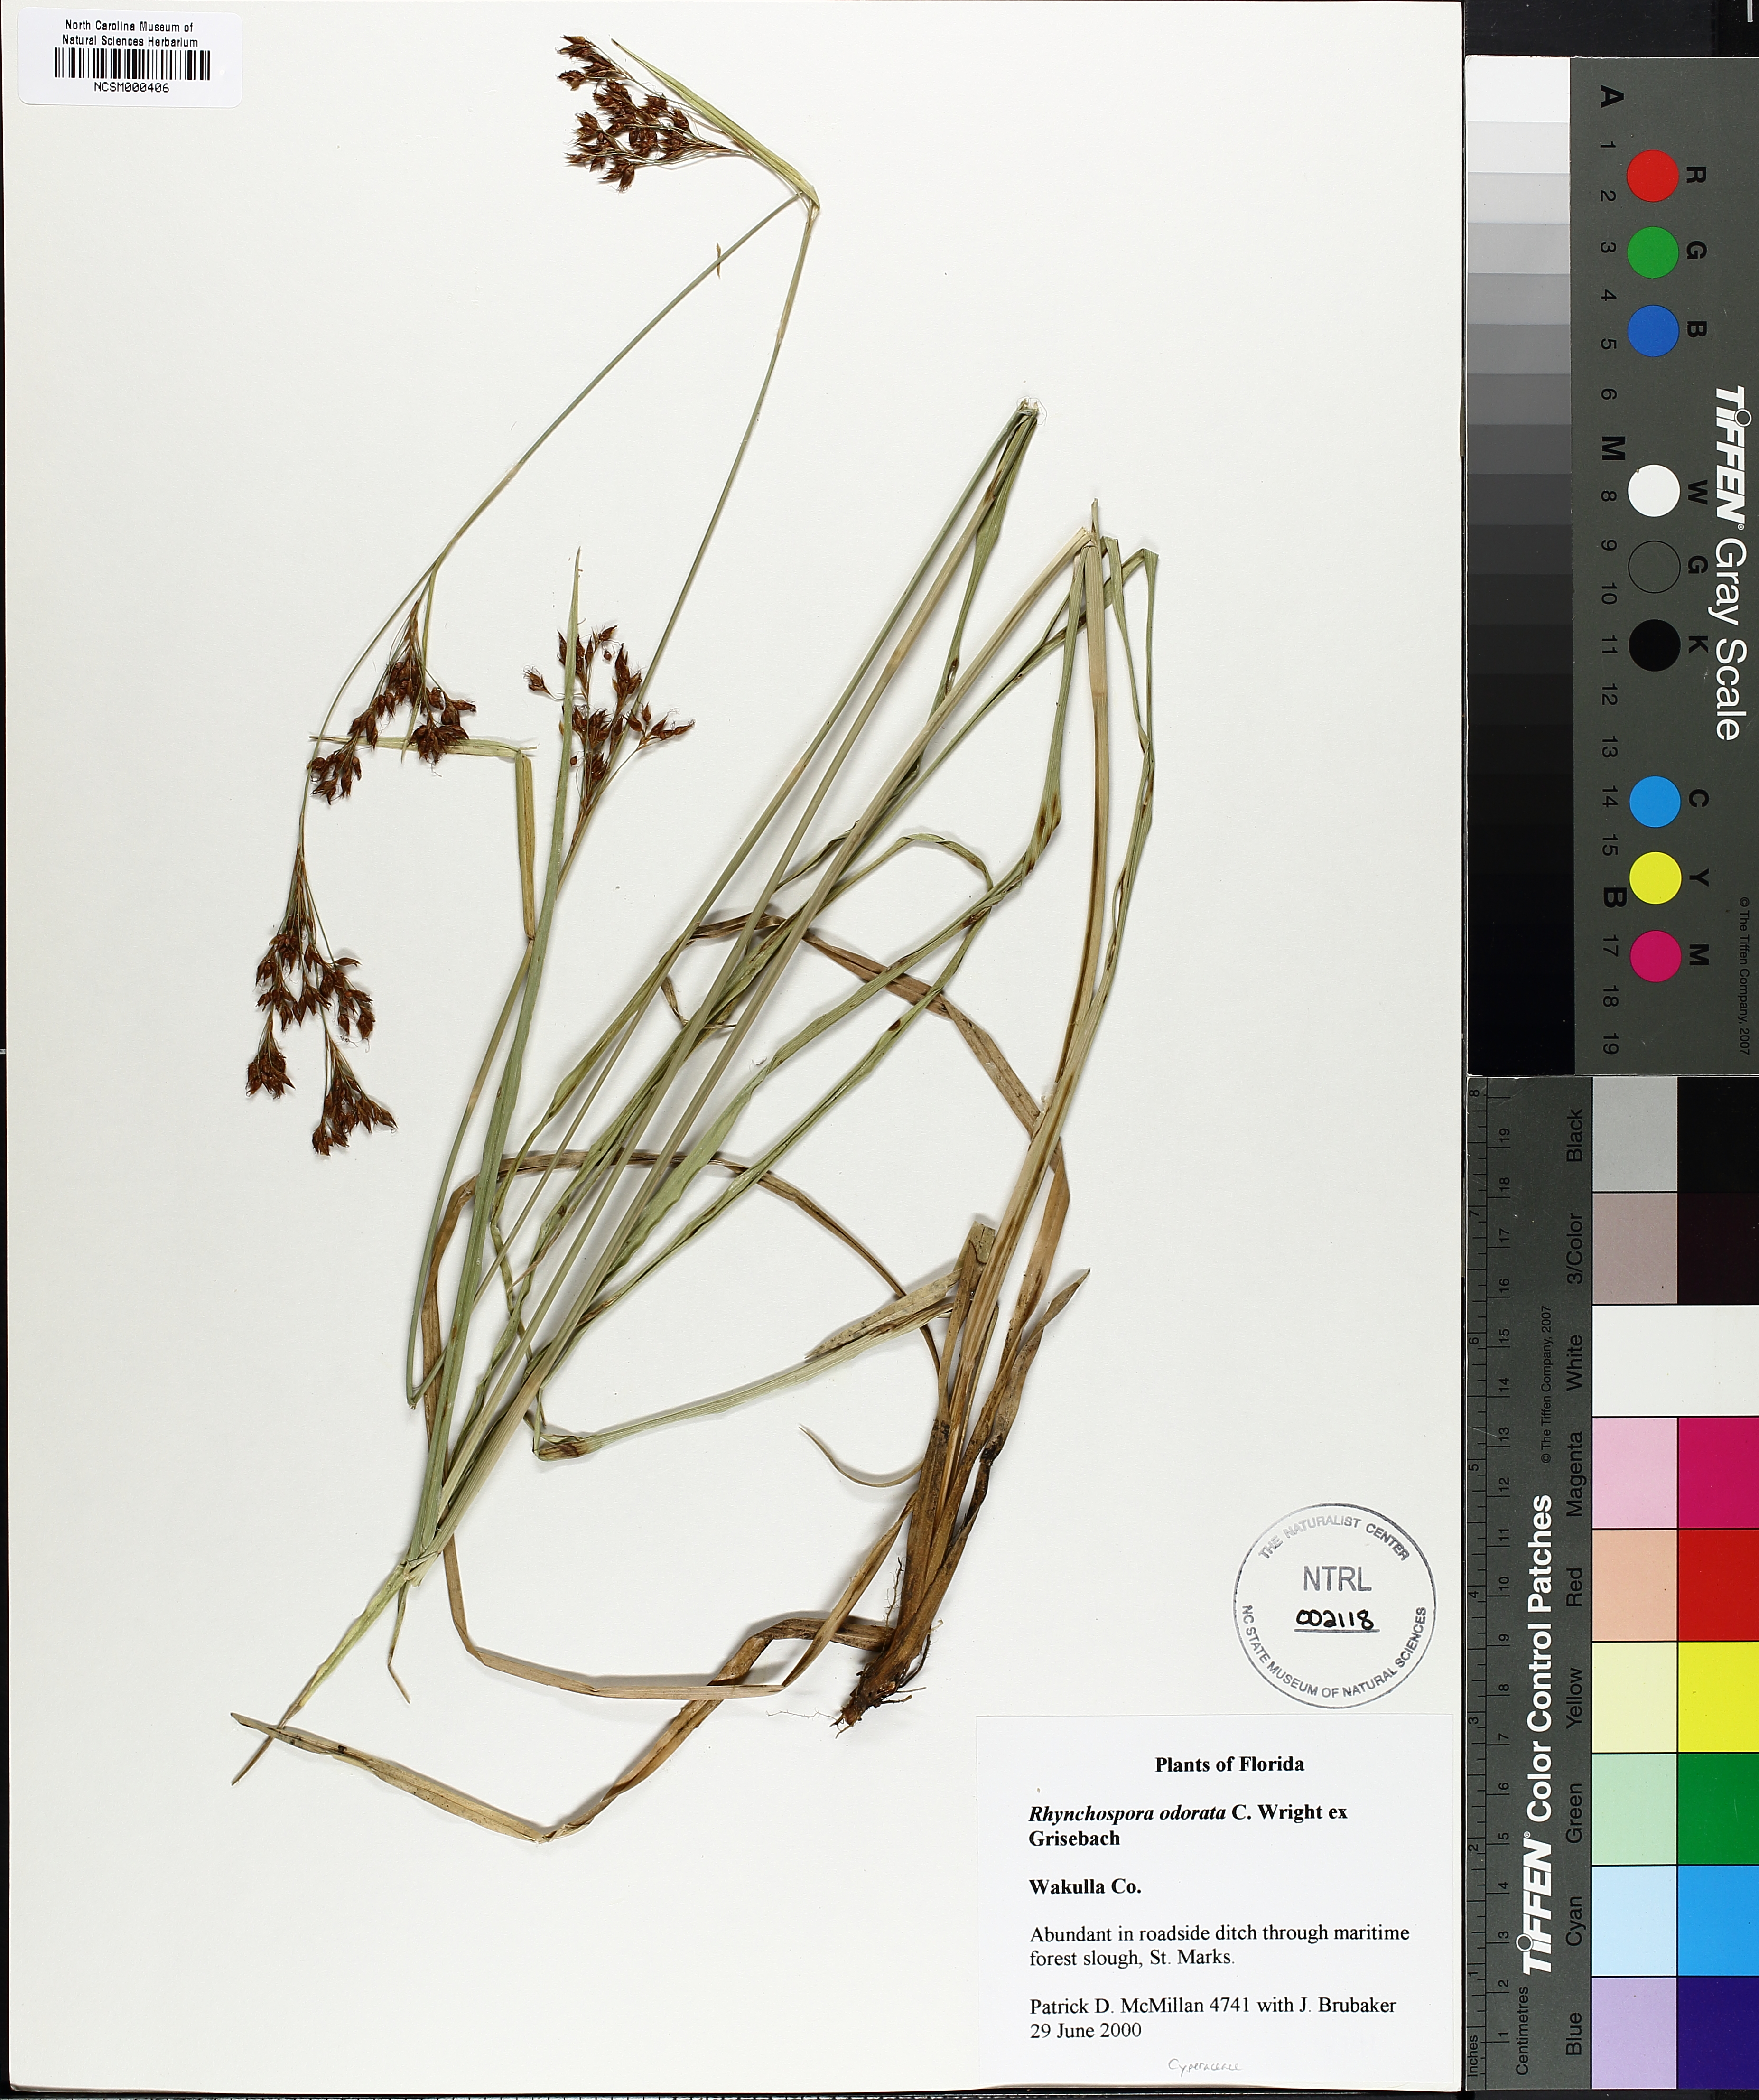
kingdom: Plantae
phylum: Tracheophyta
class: Liliopsida
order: Poales
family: Cyperaceae
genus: Rhynchospora
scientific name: Rhynchospora odorata
